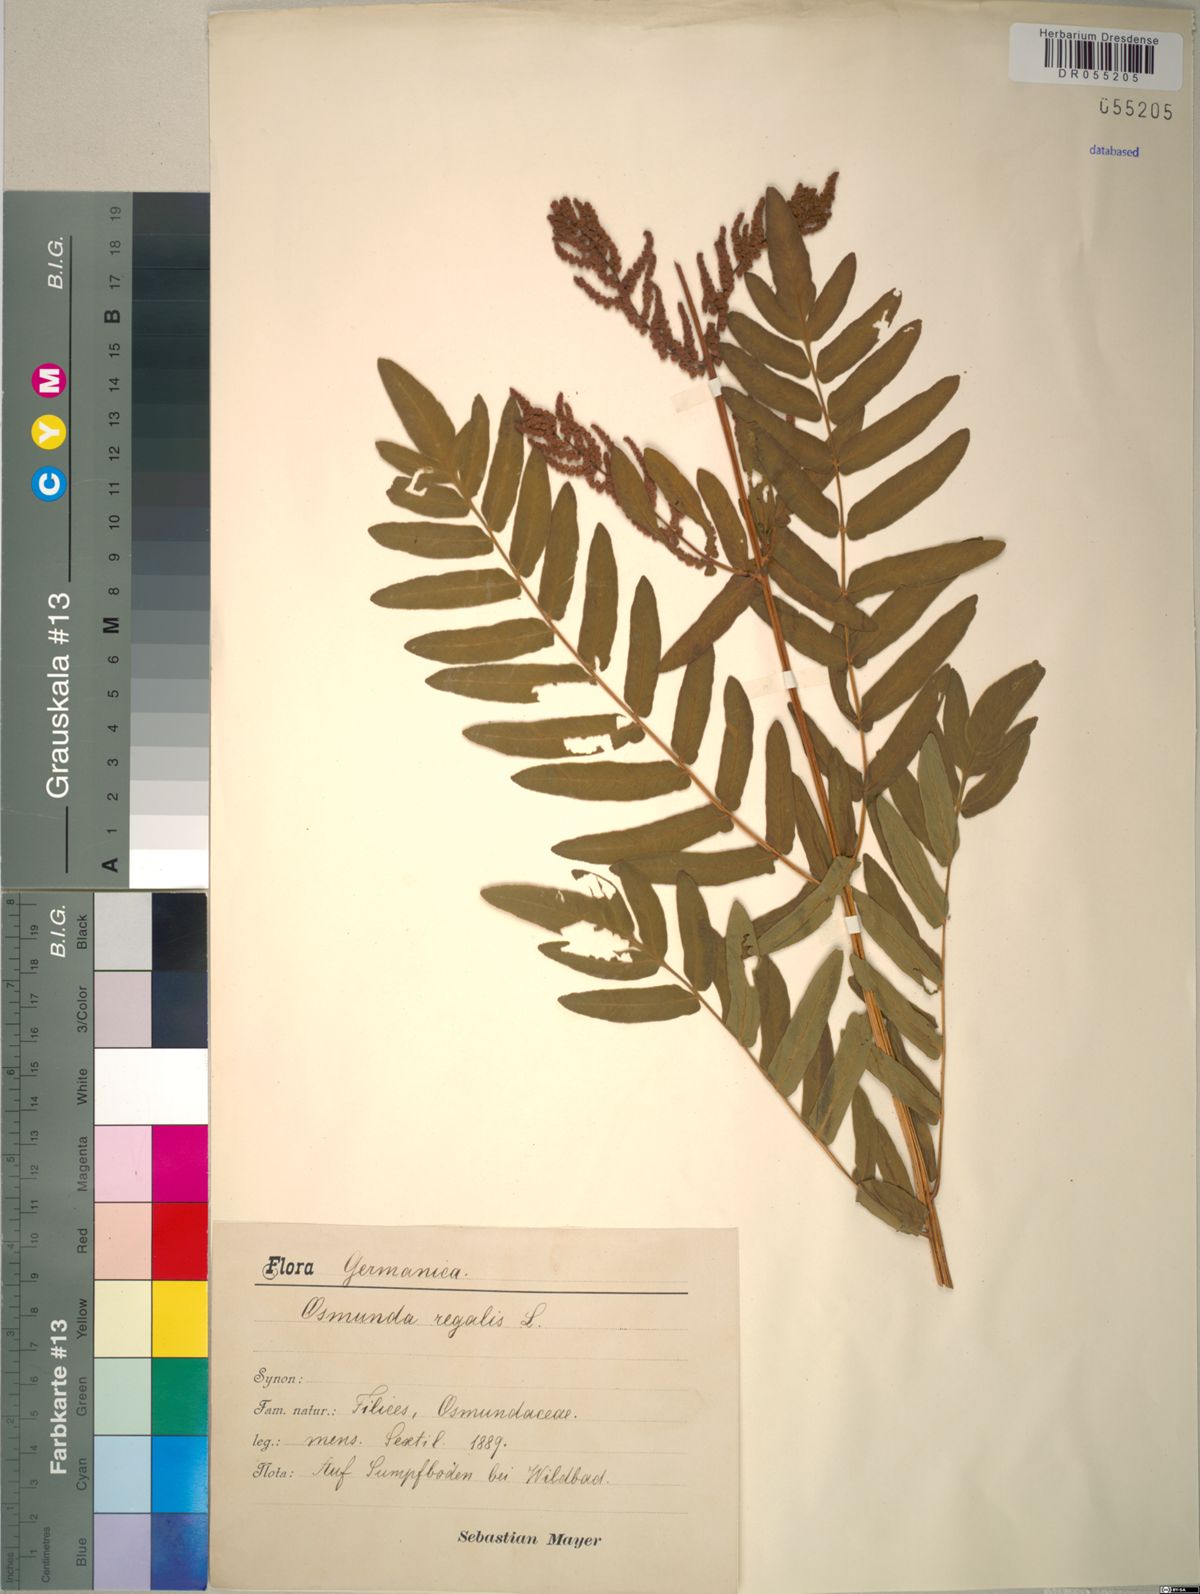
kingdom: Plantae
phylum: Tracheophyta
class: Polypodiopsida
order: Osmundales
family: Osmundaceae
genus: Osmunda
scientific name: Osmunda regalis
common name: Royal fern
